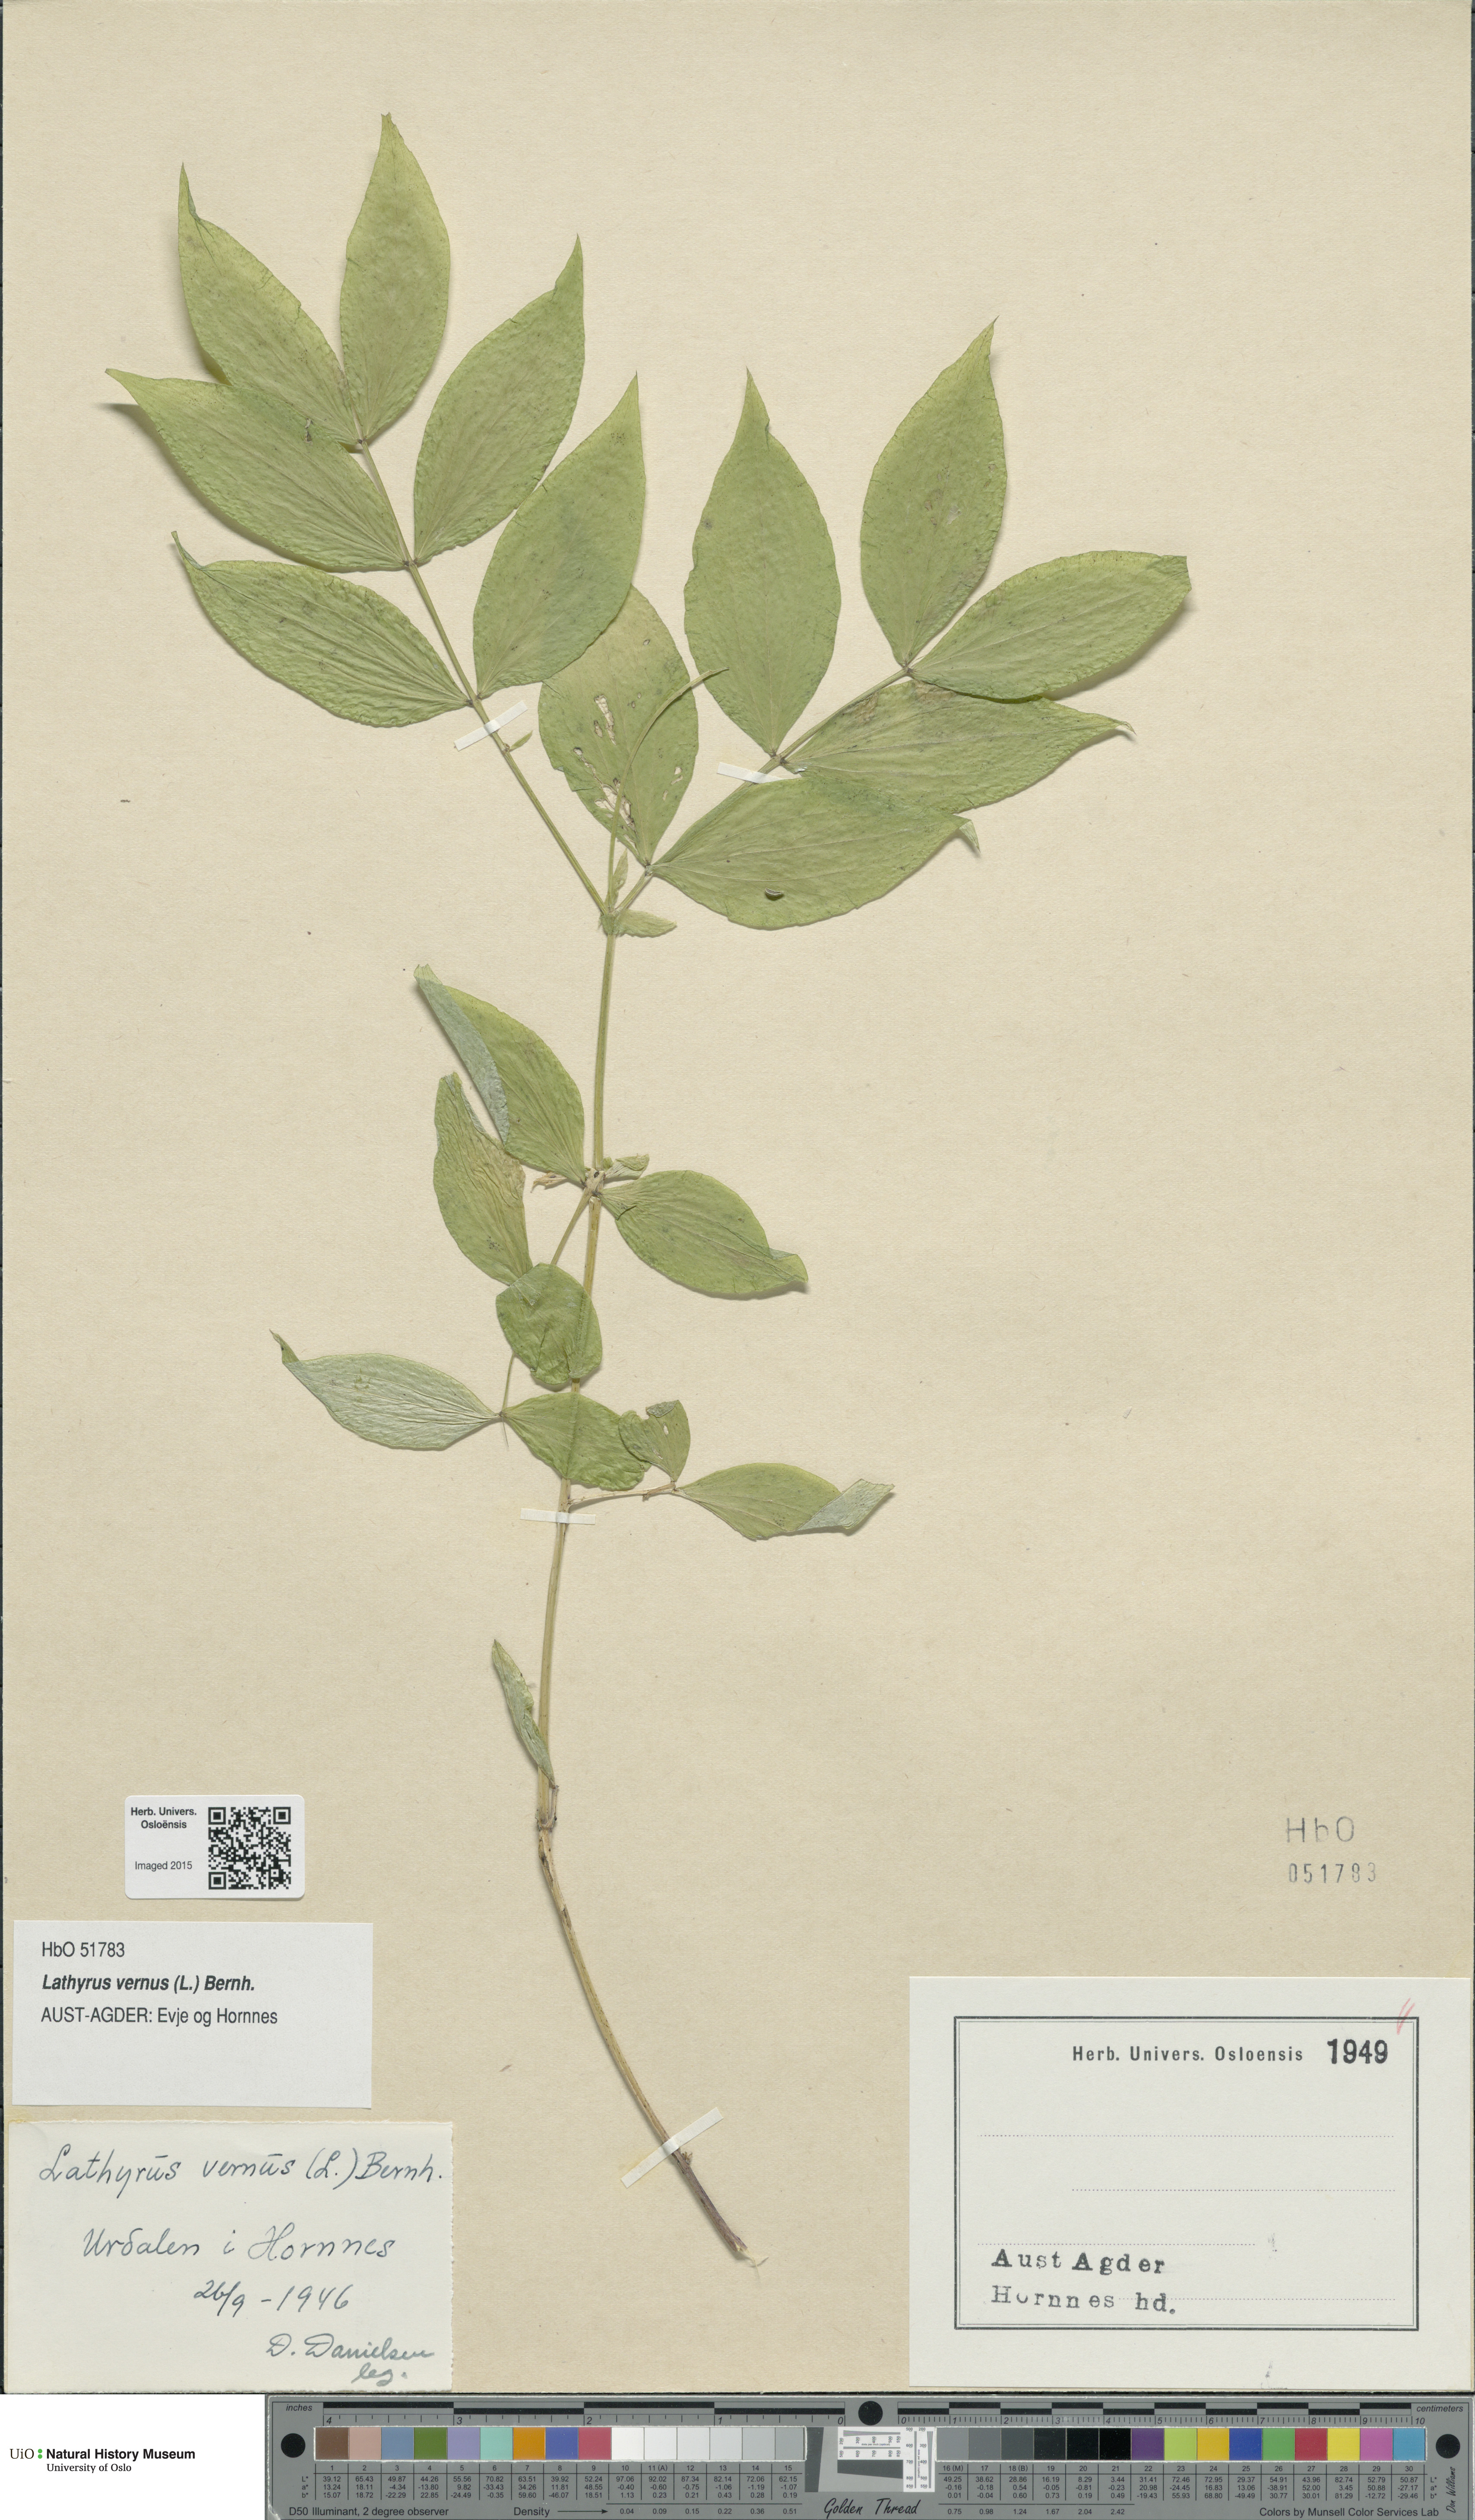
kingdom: Plantae
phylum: Tracheophyta
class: Magnoliopsida
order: Fabales
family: Fabaceae
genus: Lathyrus
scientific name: Lathyrus vernus
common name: Spring pea
